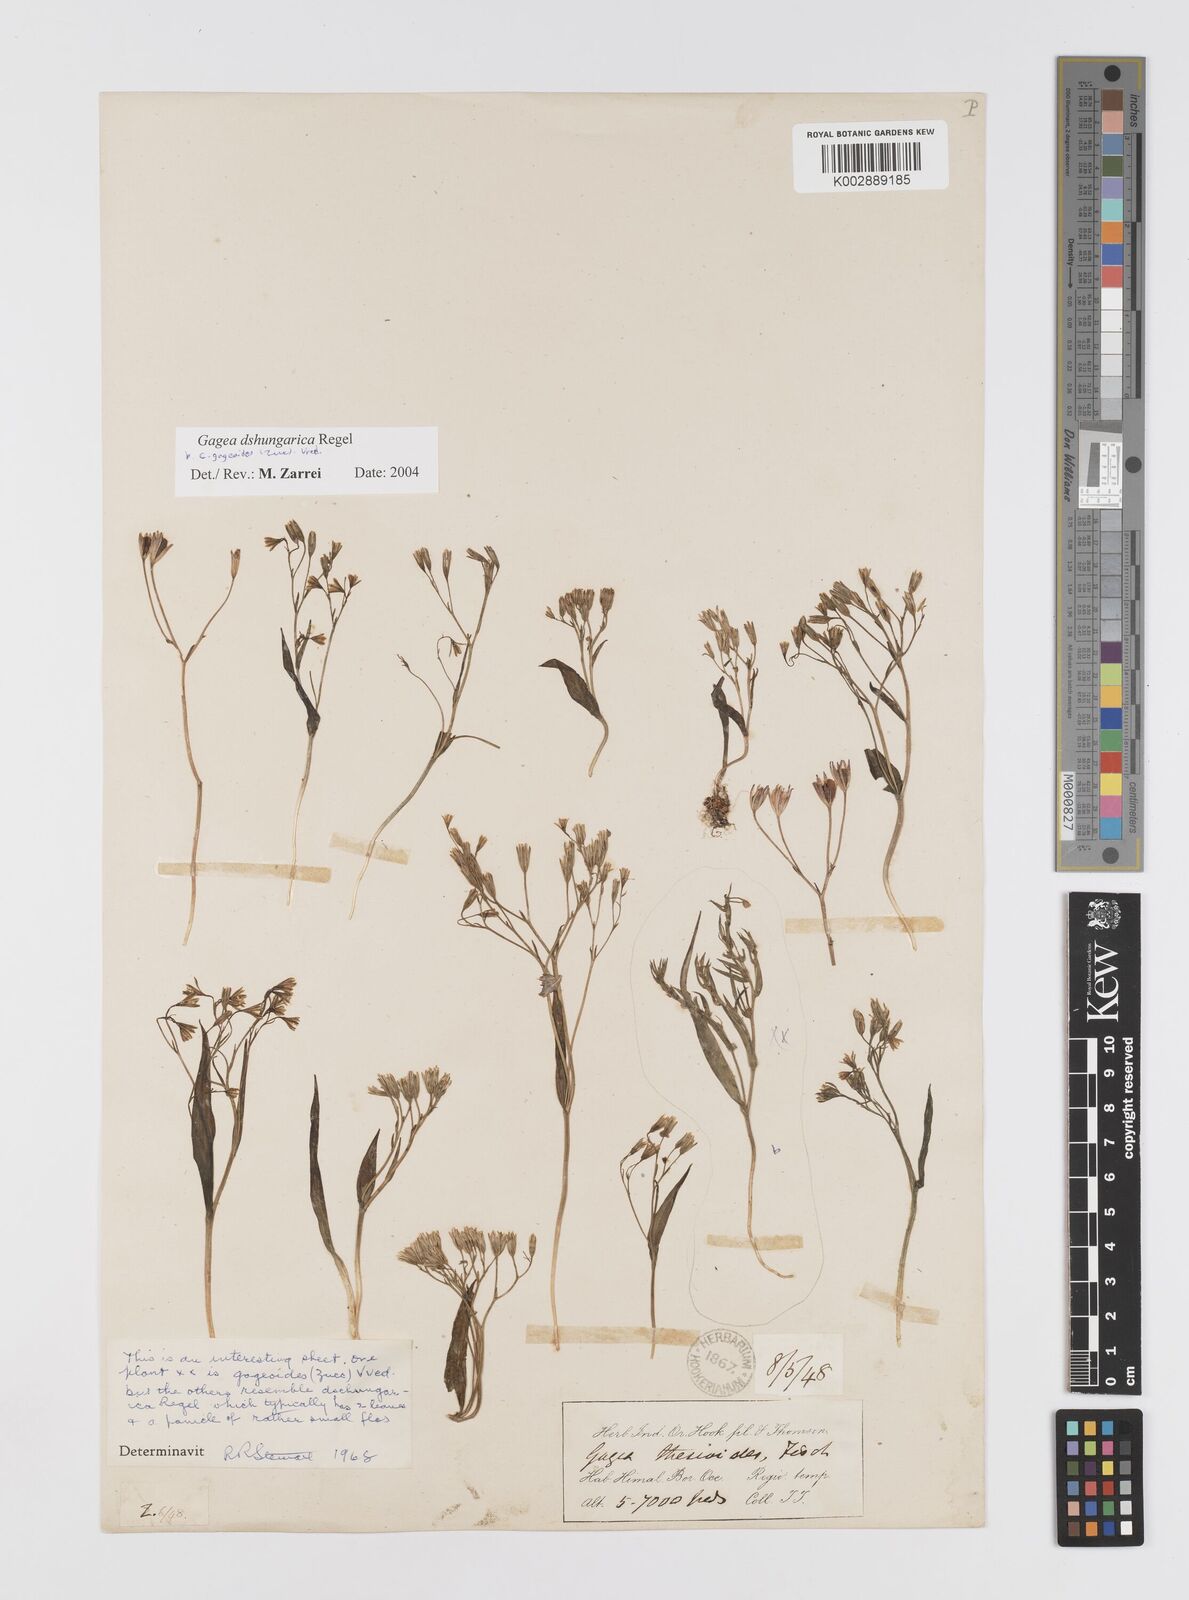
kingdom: Plantae
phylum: Tracheophyta
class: Liliopsida
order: Liliales
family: Liliaceae
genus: Gagea
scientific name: Gagea dschungarica
